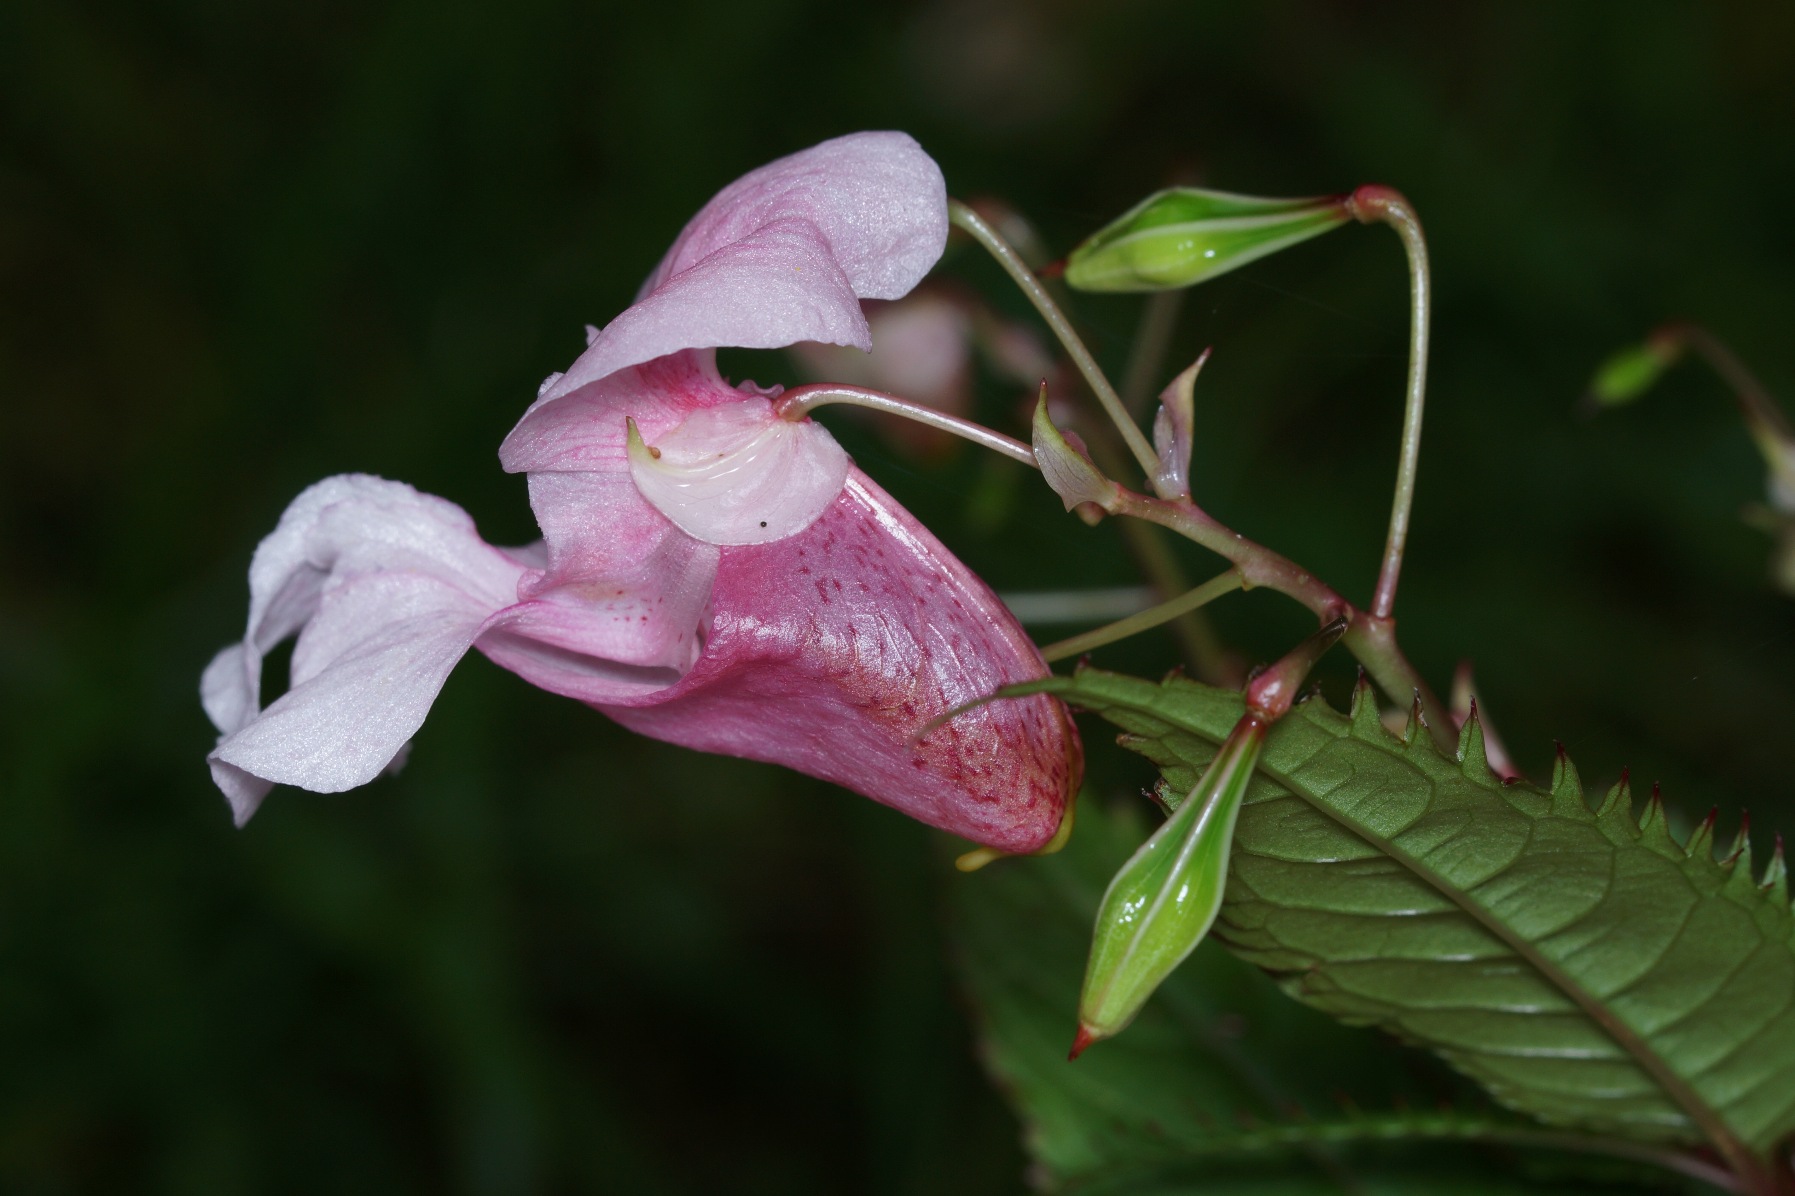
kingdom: Plantae
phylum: Tracheophyta
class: Magnoliopsida
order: Ericales
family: Balsaminaceae
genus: Impatiens
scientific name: Impatiens glandulifera
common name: Kæmpe-balsamin
